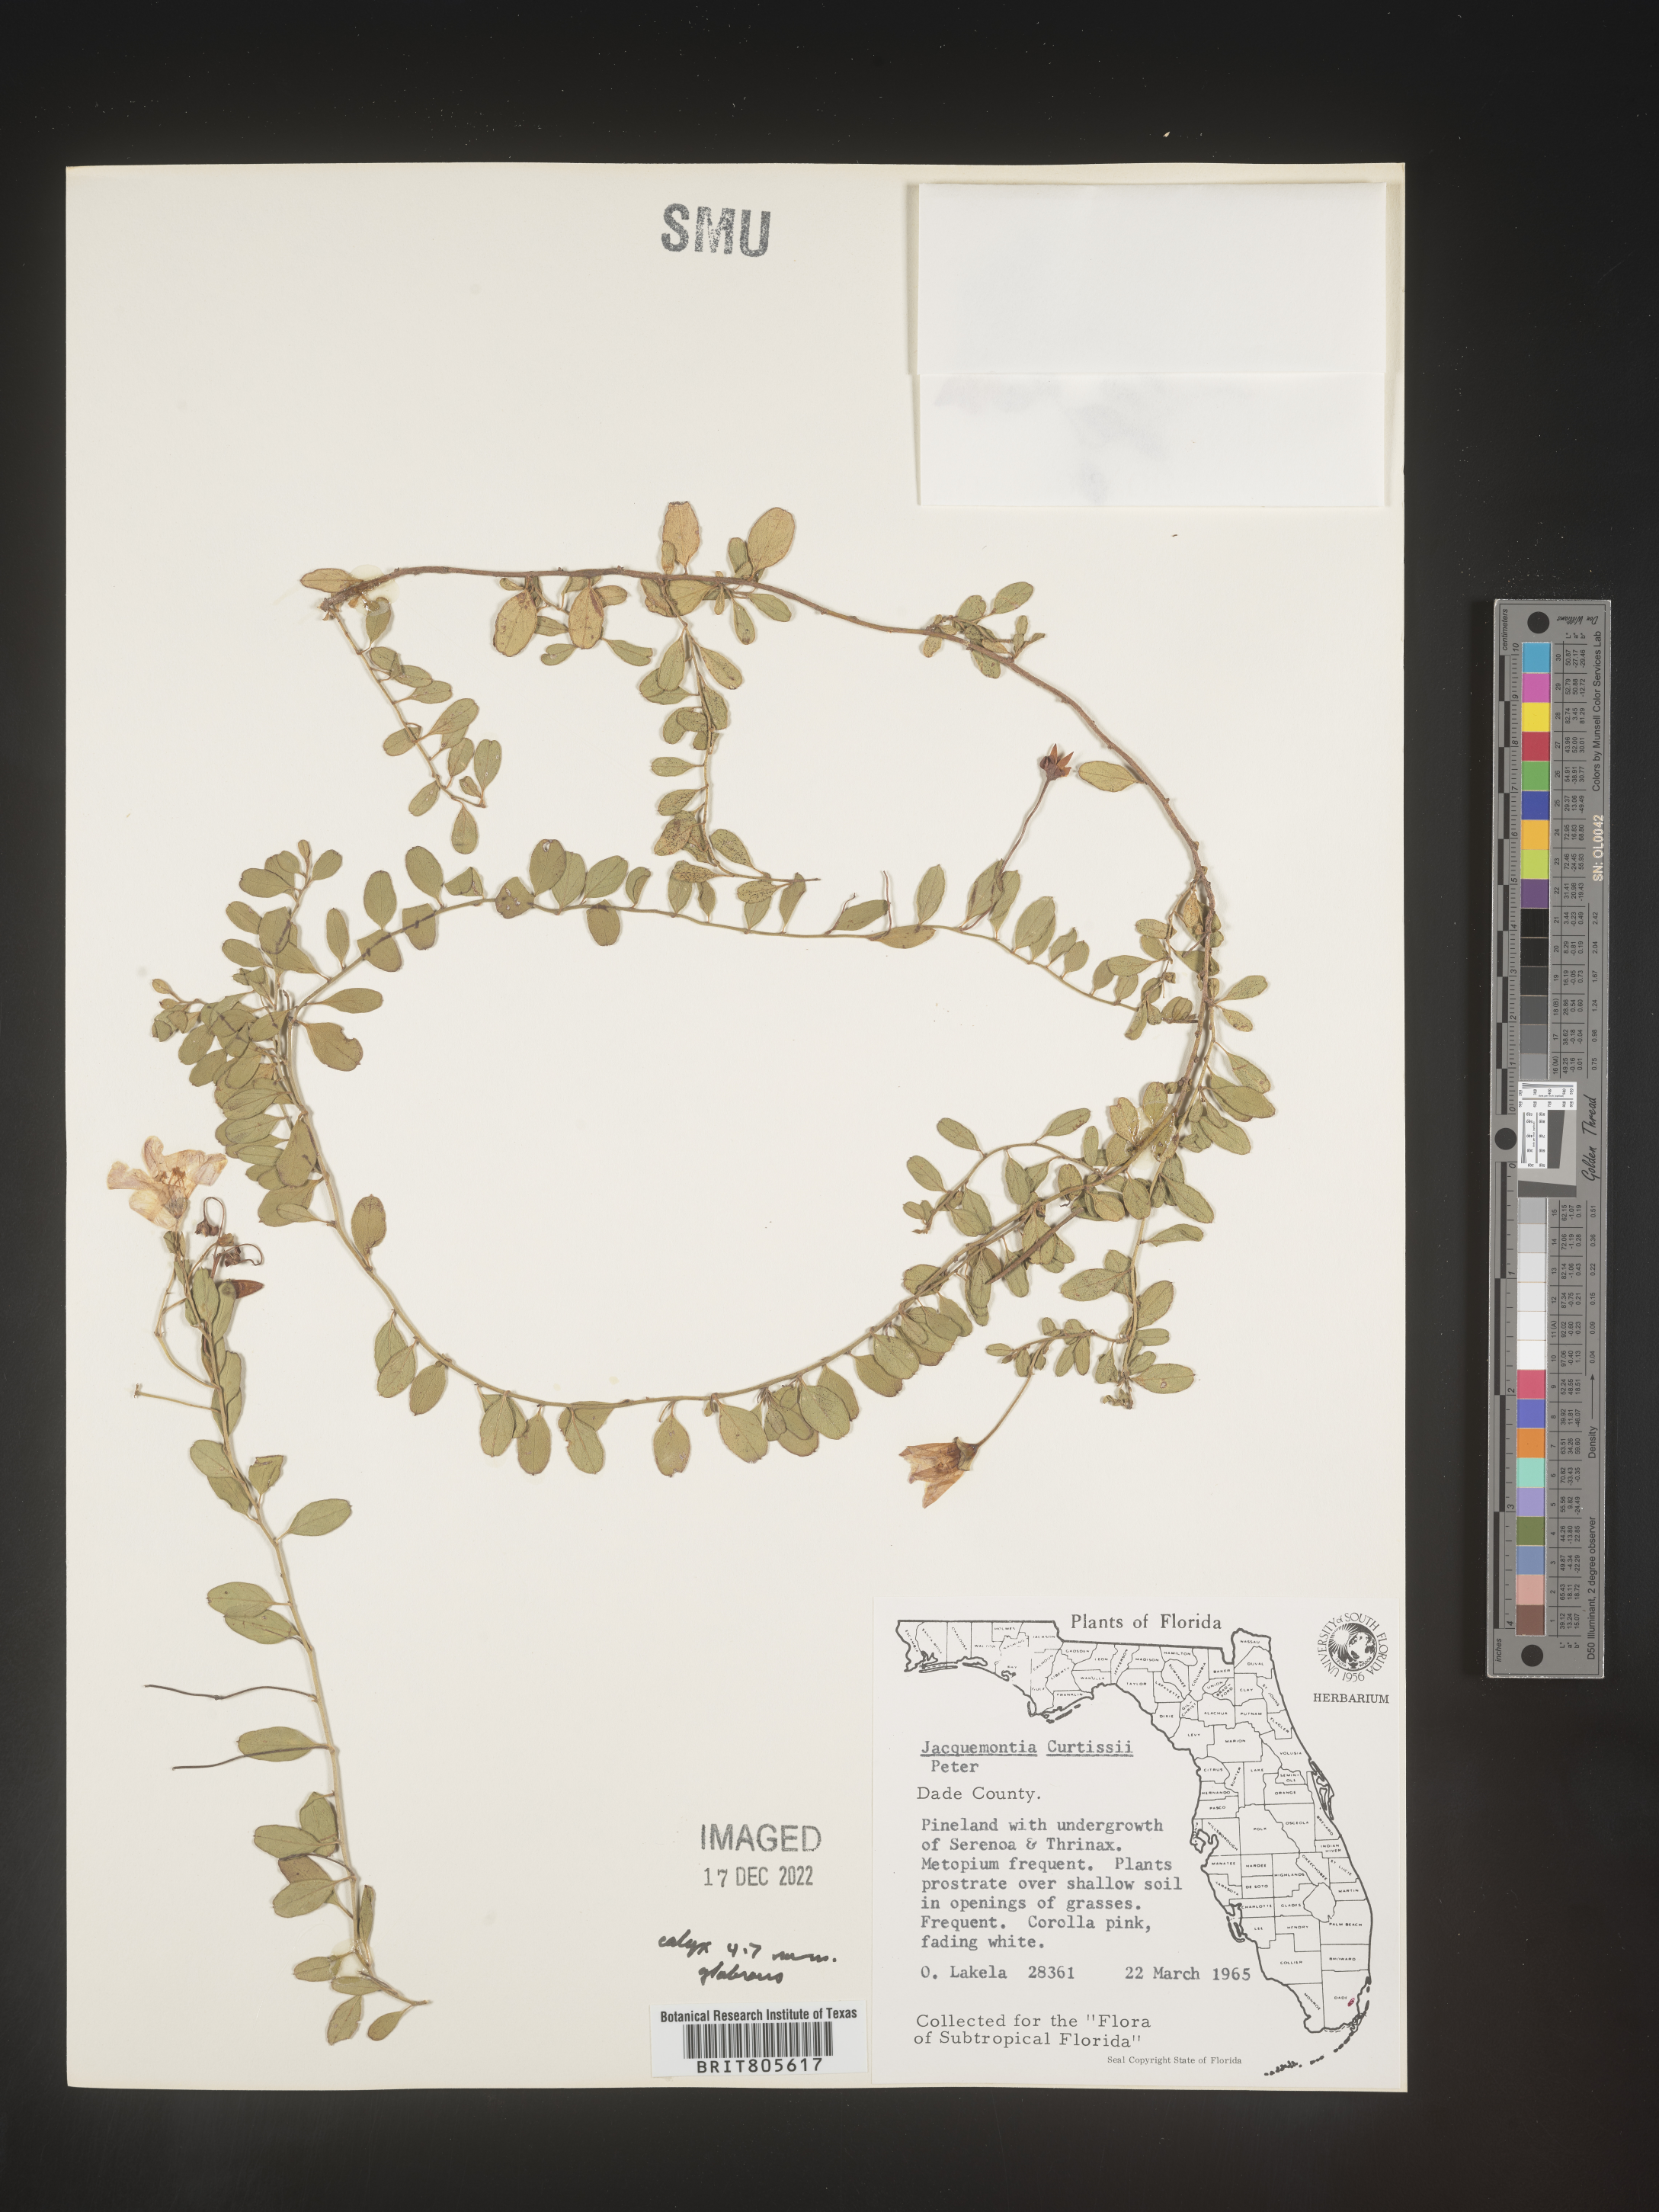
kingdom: Plantae
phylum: Tracheophyta
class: Magnoliopsida
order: Solanales
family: Convolvulaceae
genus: Jacquemontia
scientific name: Jacquemontia
